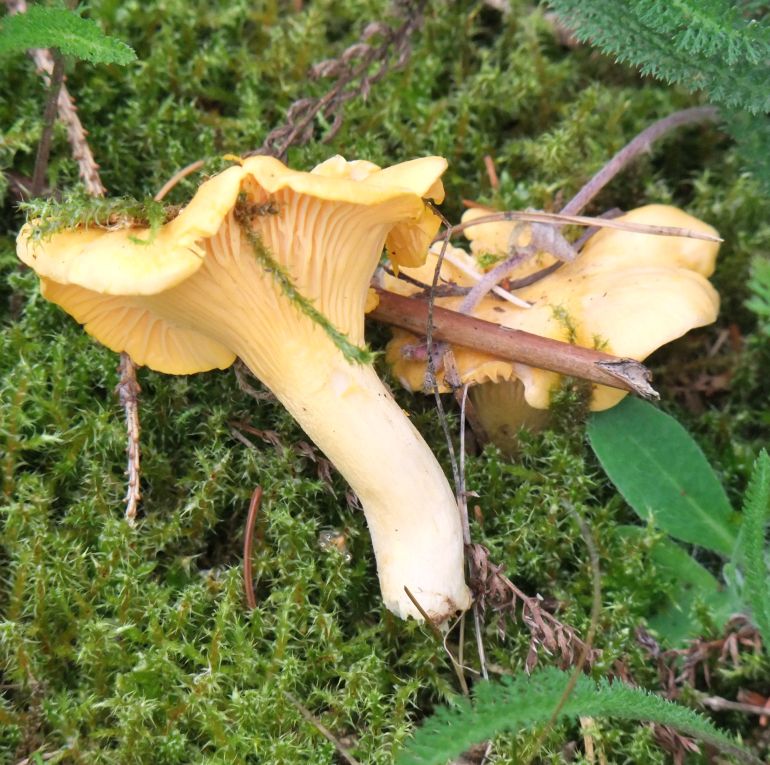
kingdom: Fungi
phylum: Basidiomycota
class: Agaricomycetes
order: Cantharellales
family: Hydnaceae
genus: Cantharellus
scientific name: Cantharellus cibarius
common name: almindelig kantarel
